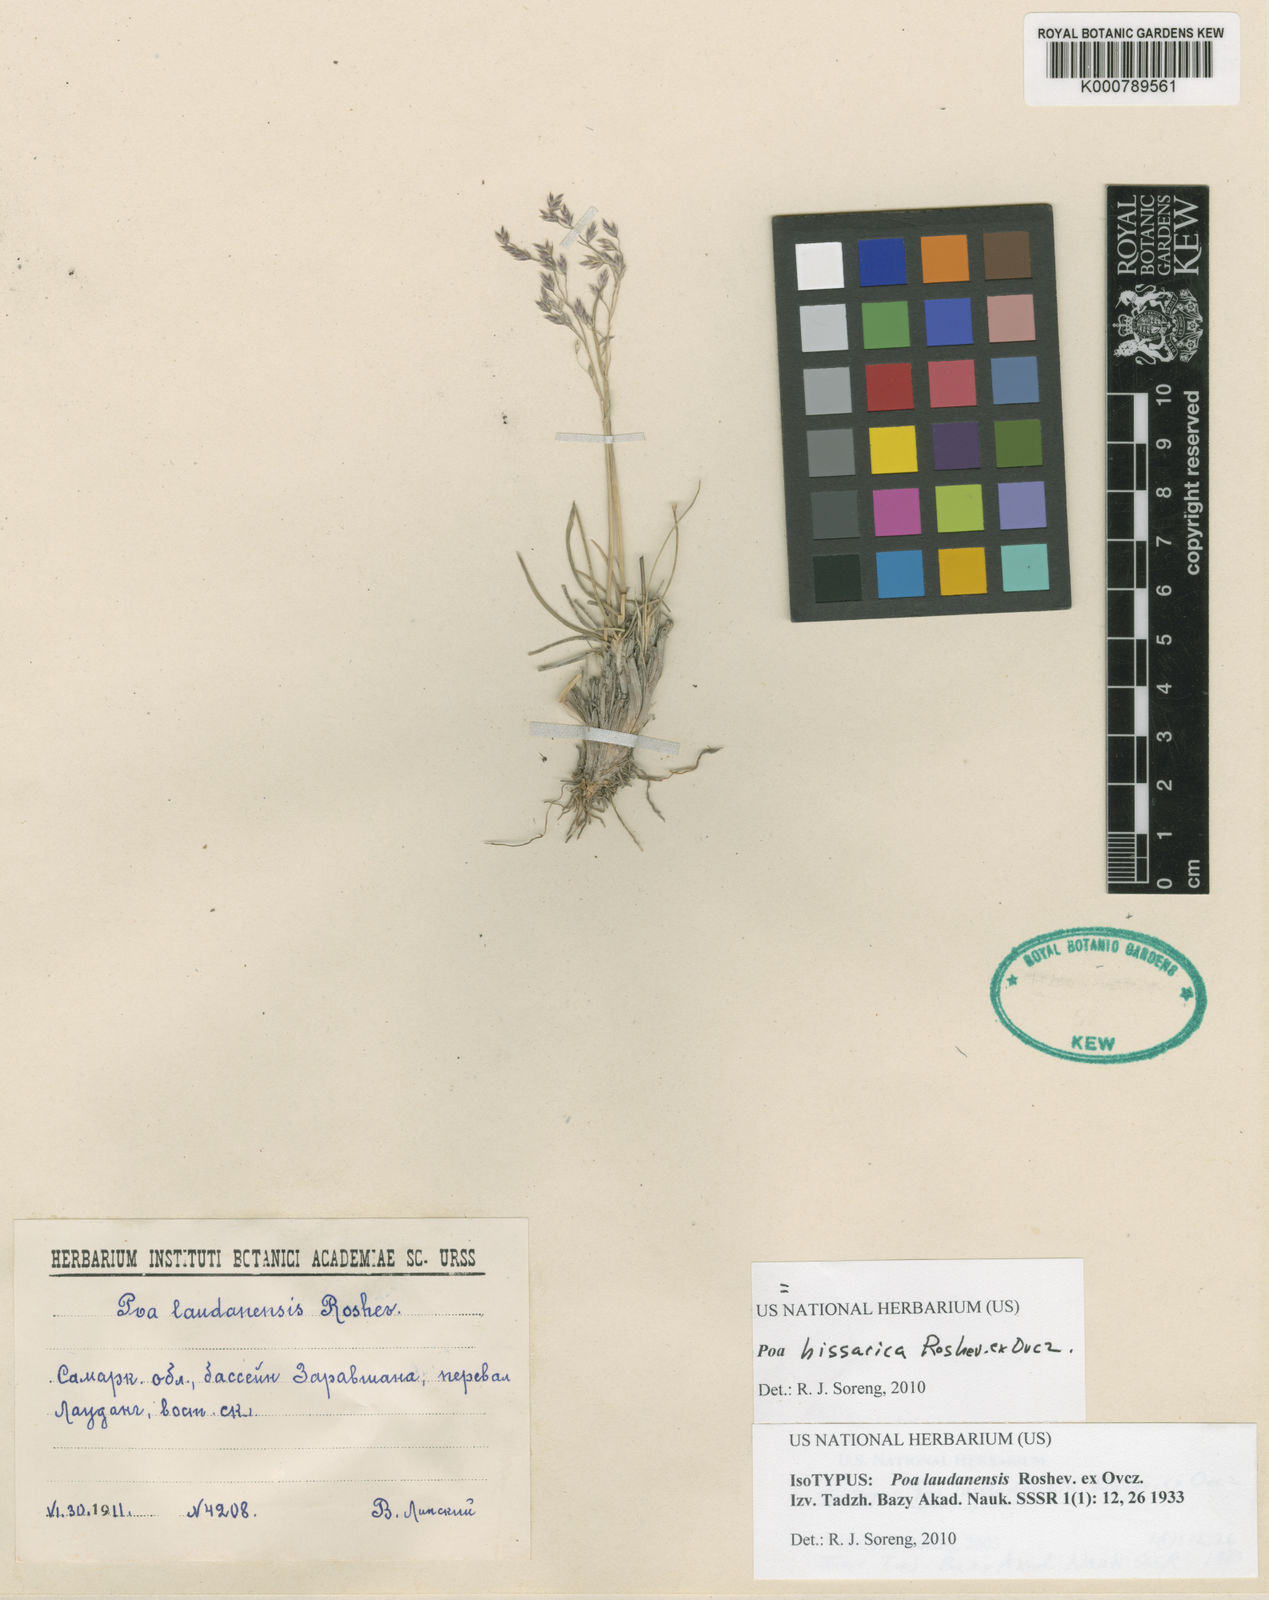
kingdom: Plantae
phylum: Tracheophyta
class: Liliopsida
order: Poales
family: Poaceae
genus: Poa
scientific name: Poa
